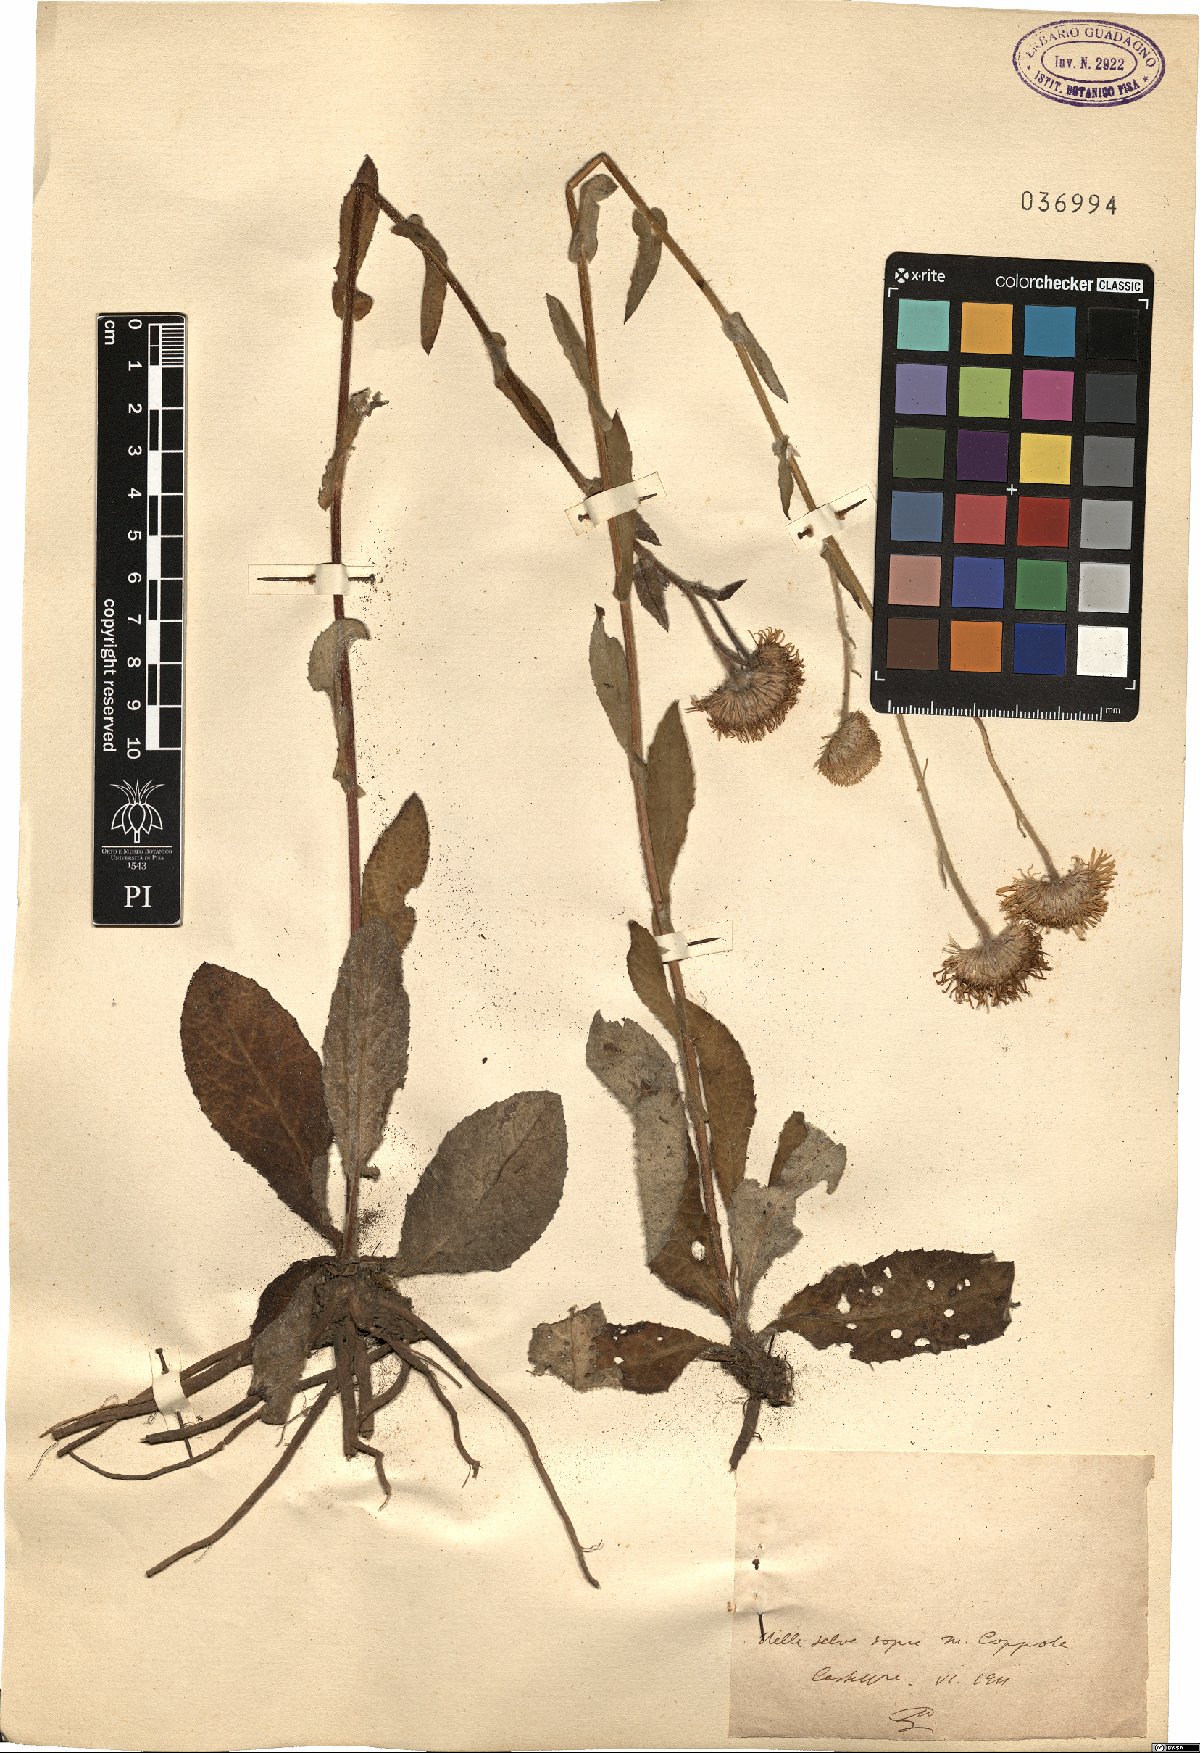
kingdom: Plantae
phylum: Tracheophyta
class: Magnoliopsida
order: Asterales
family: Asteraceae
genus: Pulicaria
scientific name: Pulicaria
